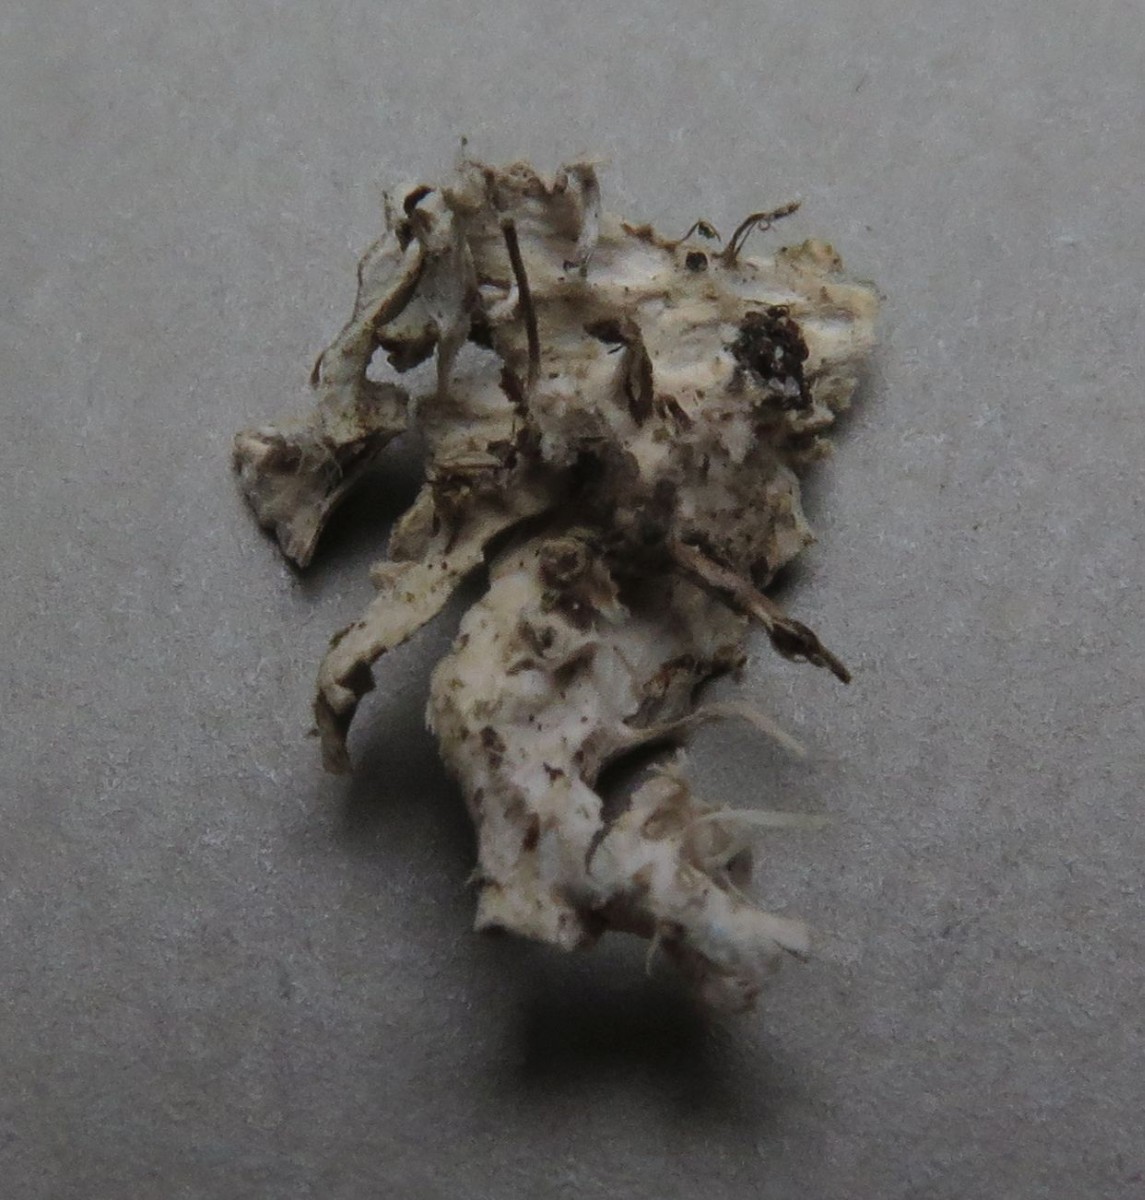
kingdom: Fungi
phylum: Ascomycota
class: Lecanoromycetes
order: Peltigerales
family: Peltigeraceae
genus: Peltigera
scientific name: Peltigera
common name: skjoldlav
